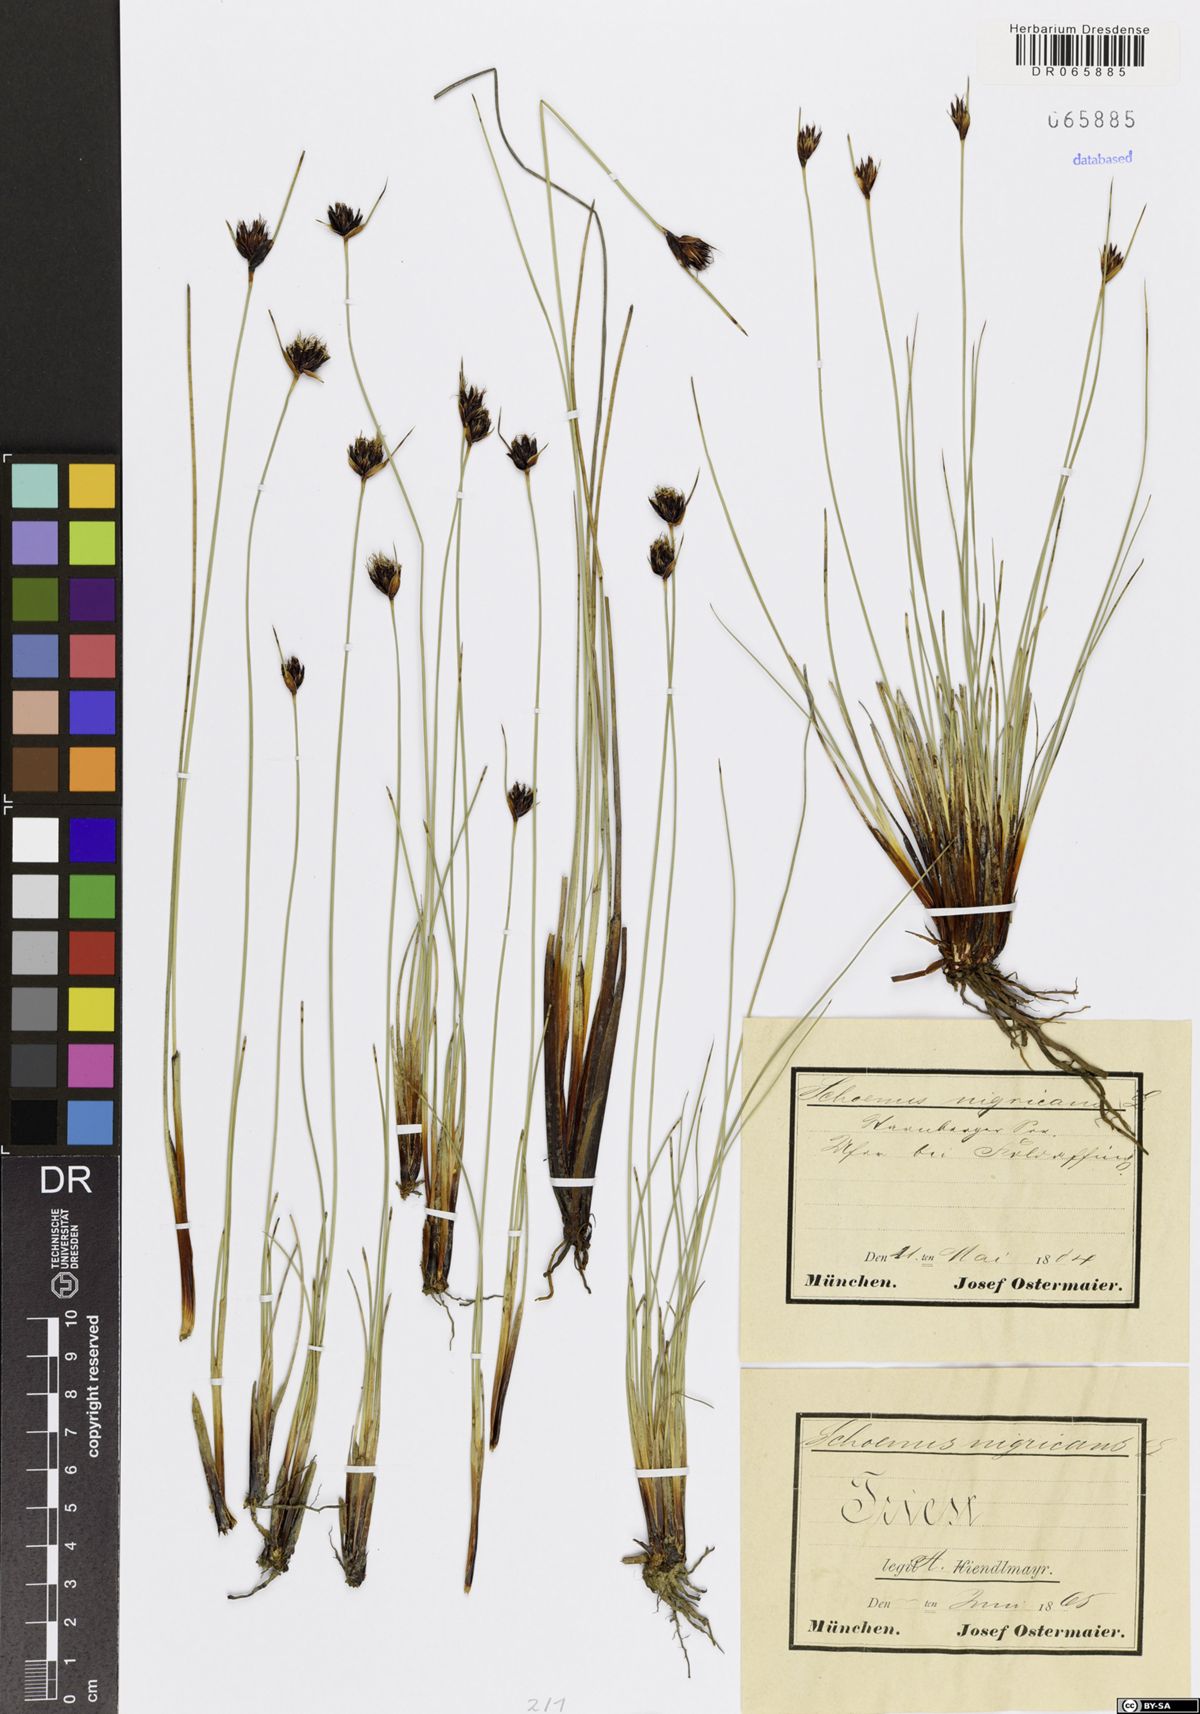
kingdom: Plantae
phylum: Tracheophyta
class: Liliopsida
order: Poales
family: Cyperaceae
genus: Schoenus
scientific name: Schoenus nigricans
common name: Black bog-rush
